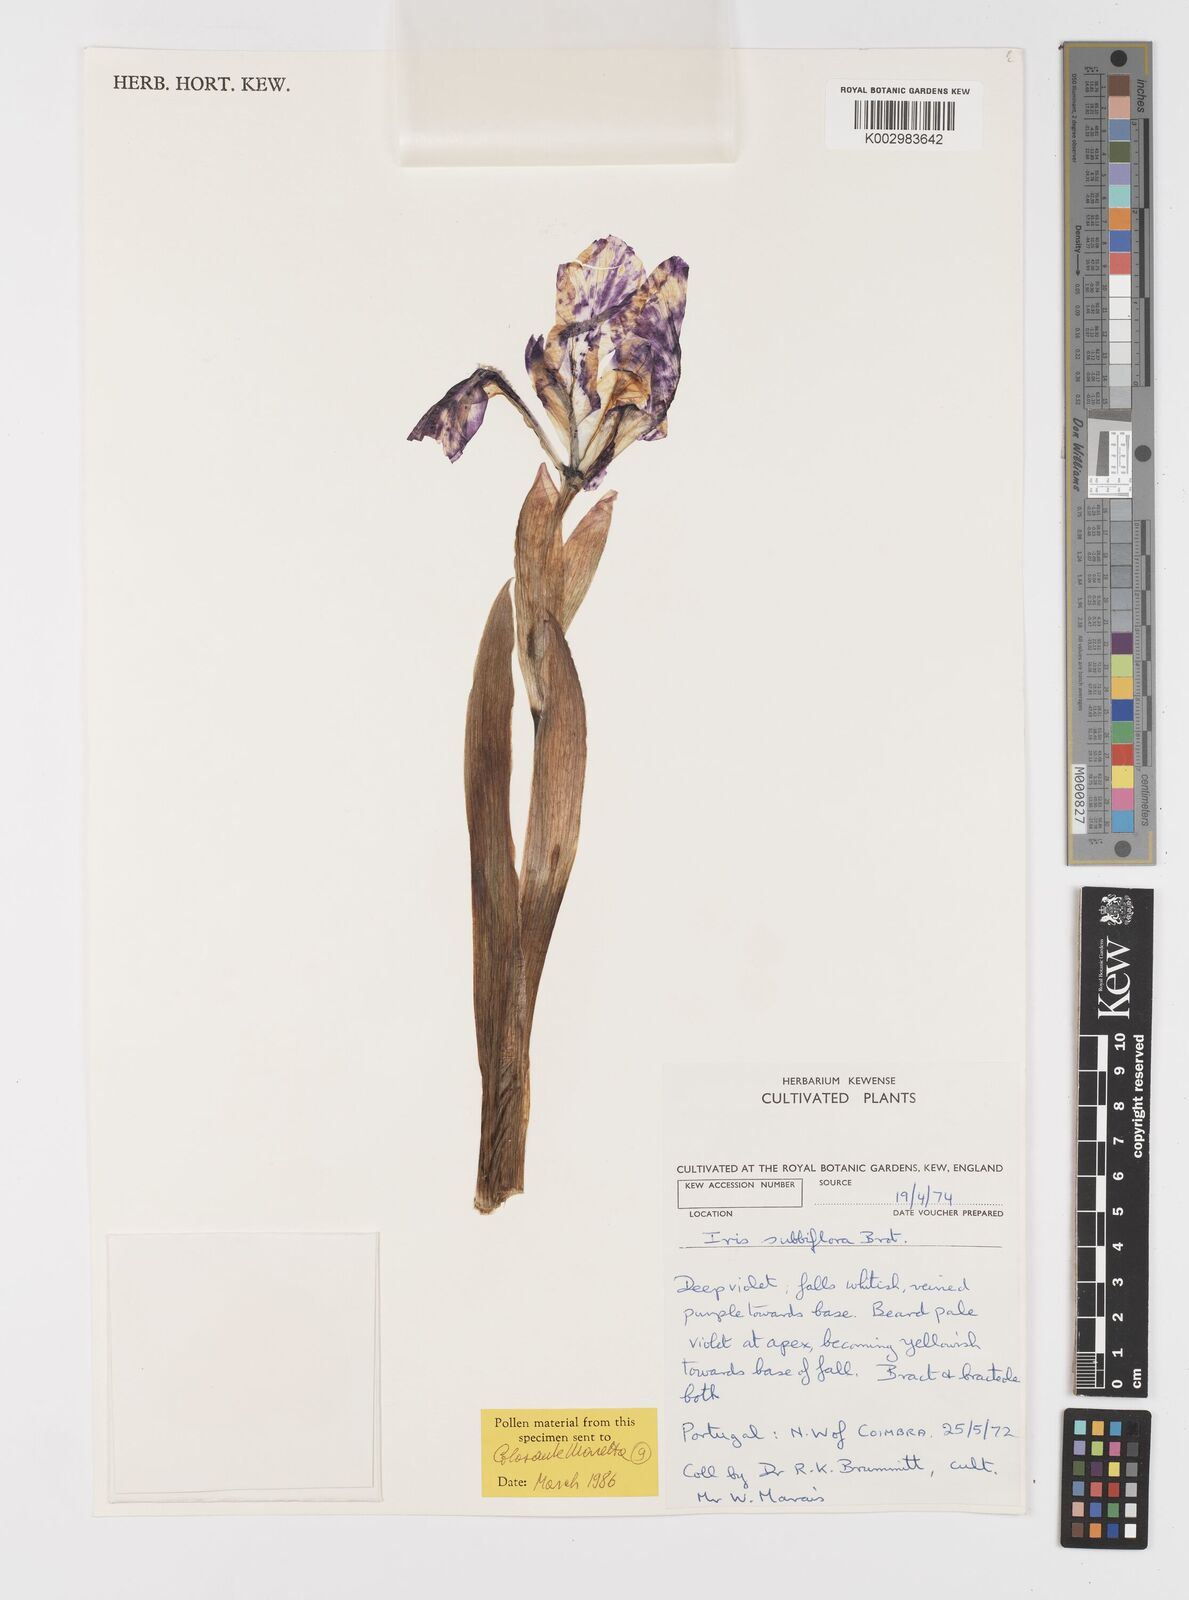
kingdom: Plantae
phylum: Tracheophyta
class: Liliopsida
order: Asparagales
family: Iridaceae
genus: Iris
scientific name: Iris lutescens
